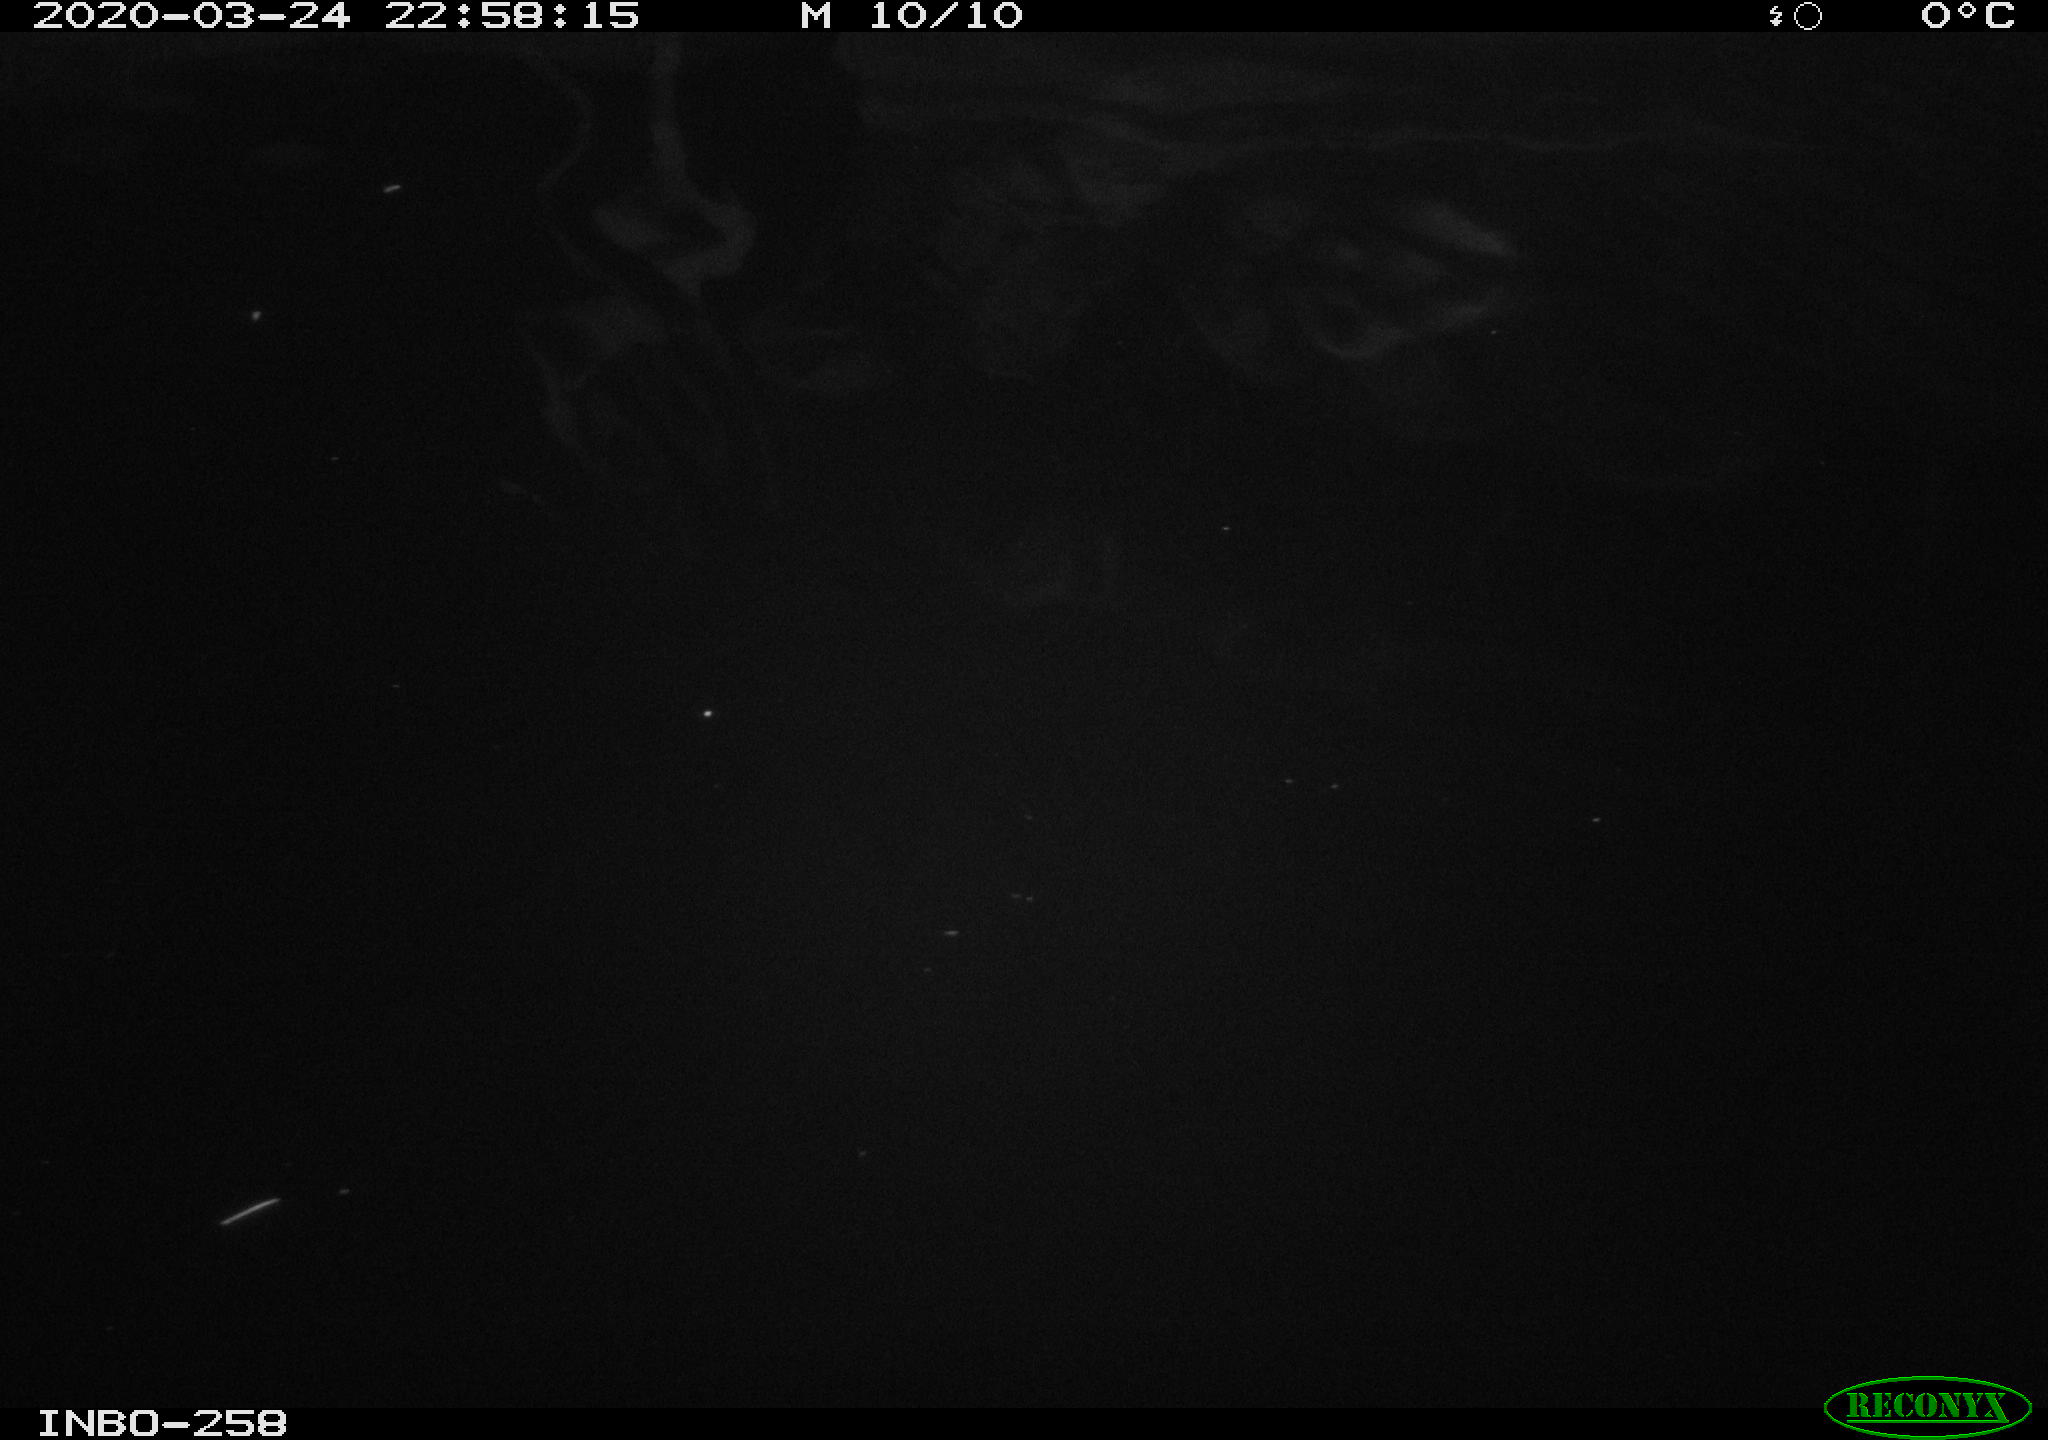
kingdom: Animalia
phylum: Chordata
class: Aves
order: Anseriformes
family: Anatidae
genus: Anas
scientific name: Anas platyrhynchos
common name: Mallard
